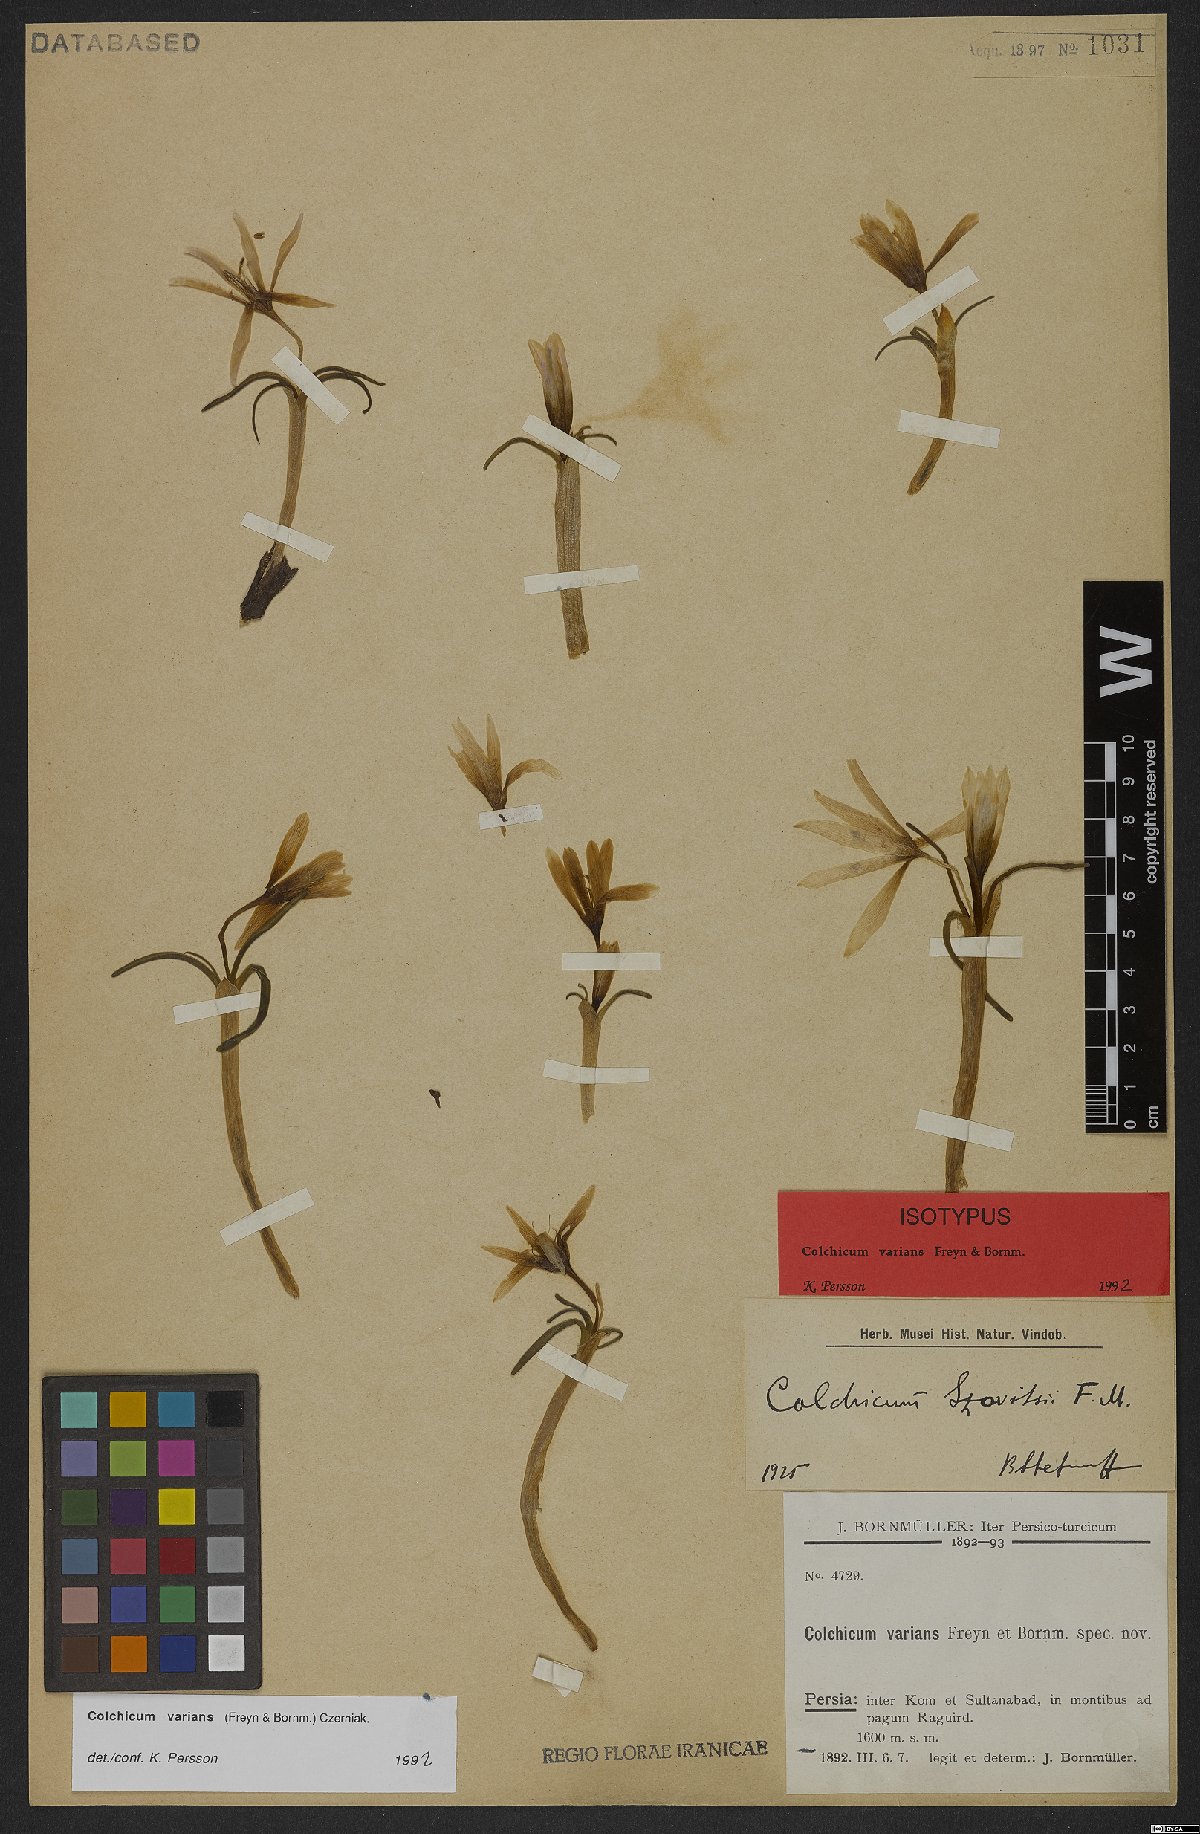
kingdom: Plantae
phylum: Tracheophyta
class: Liliopsida
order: Liliales
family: Colchicaceae
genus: Colchicum
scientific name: Colchicum varians
